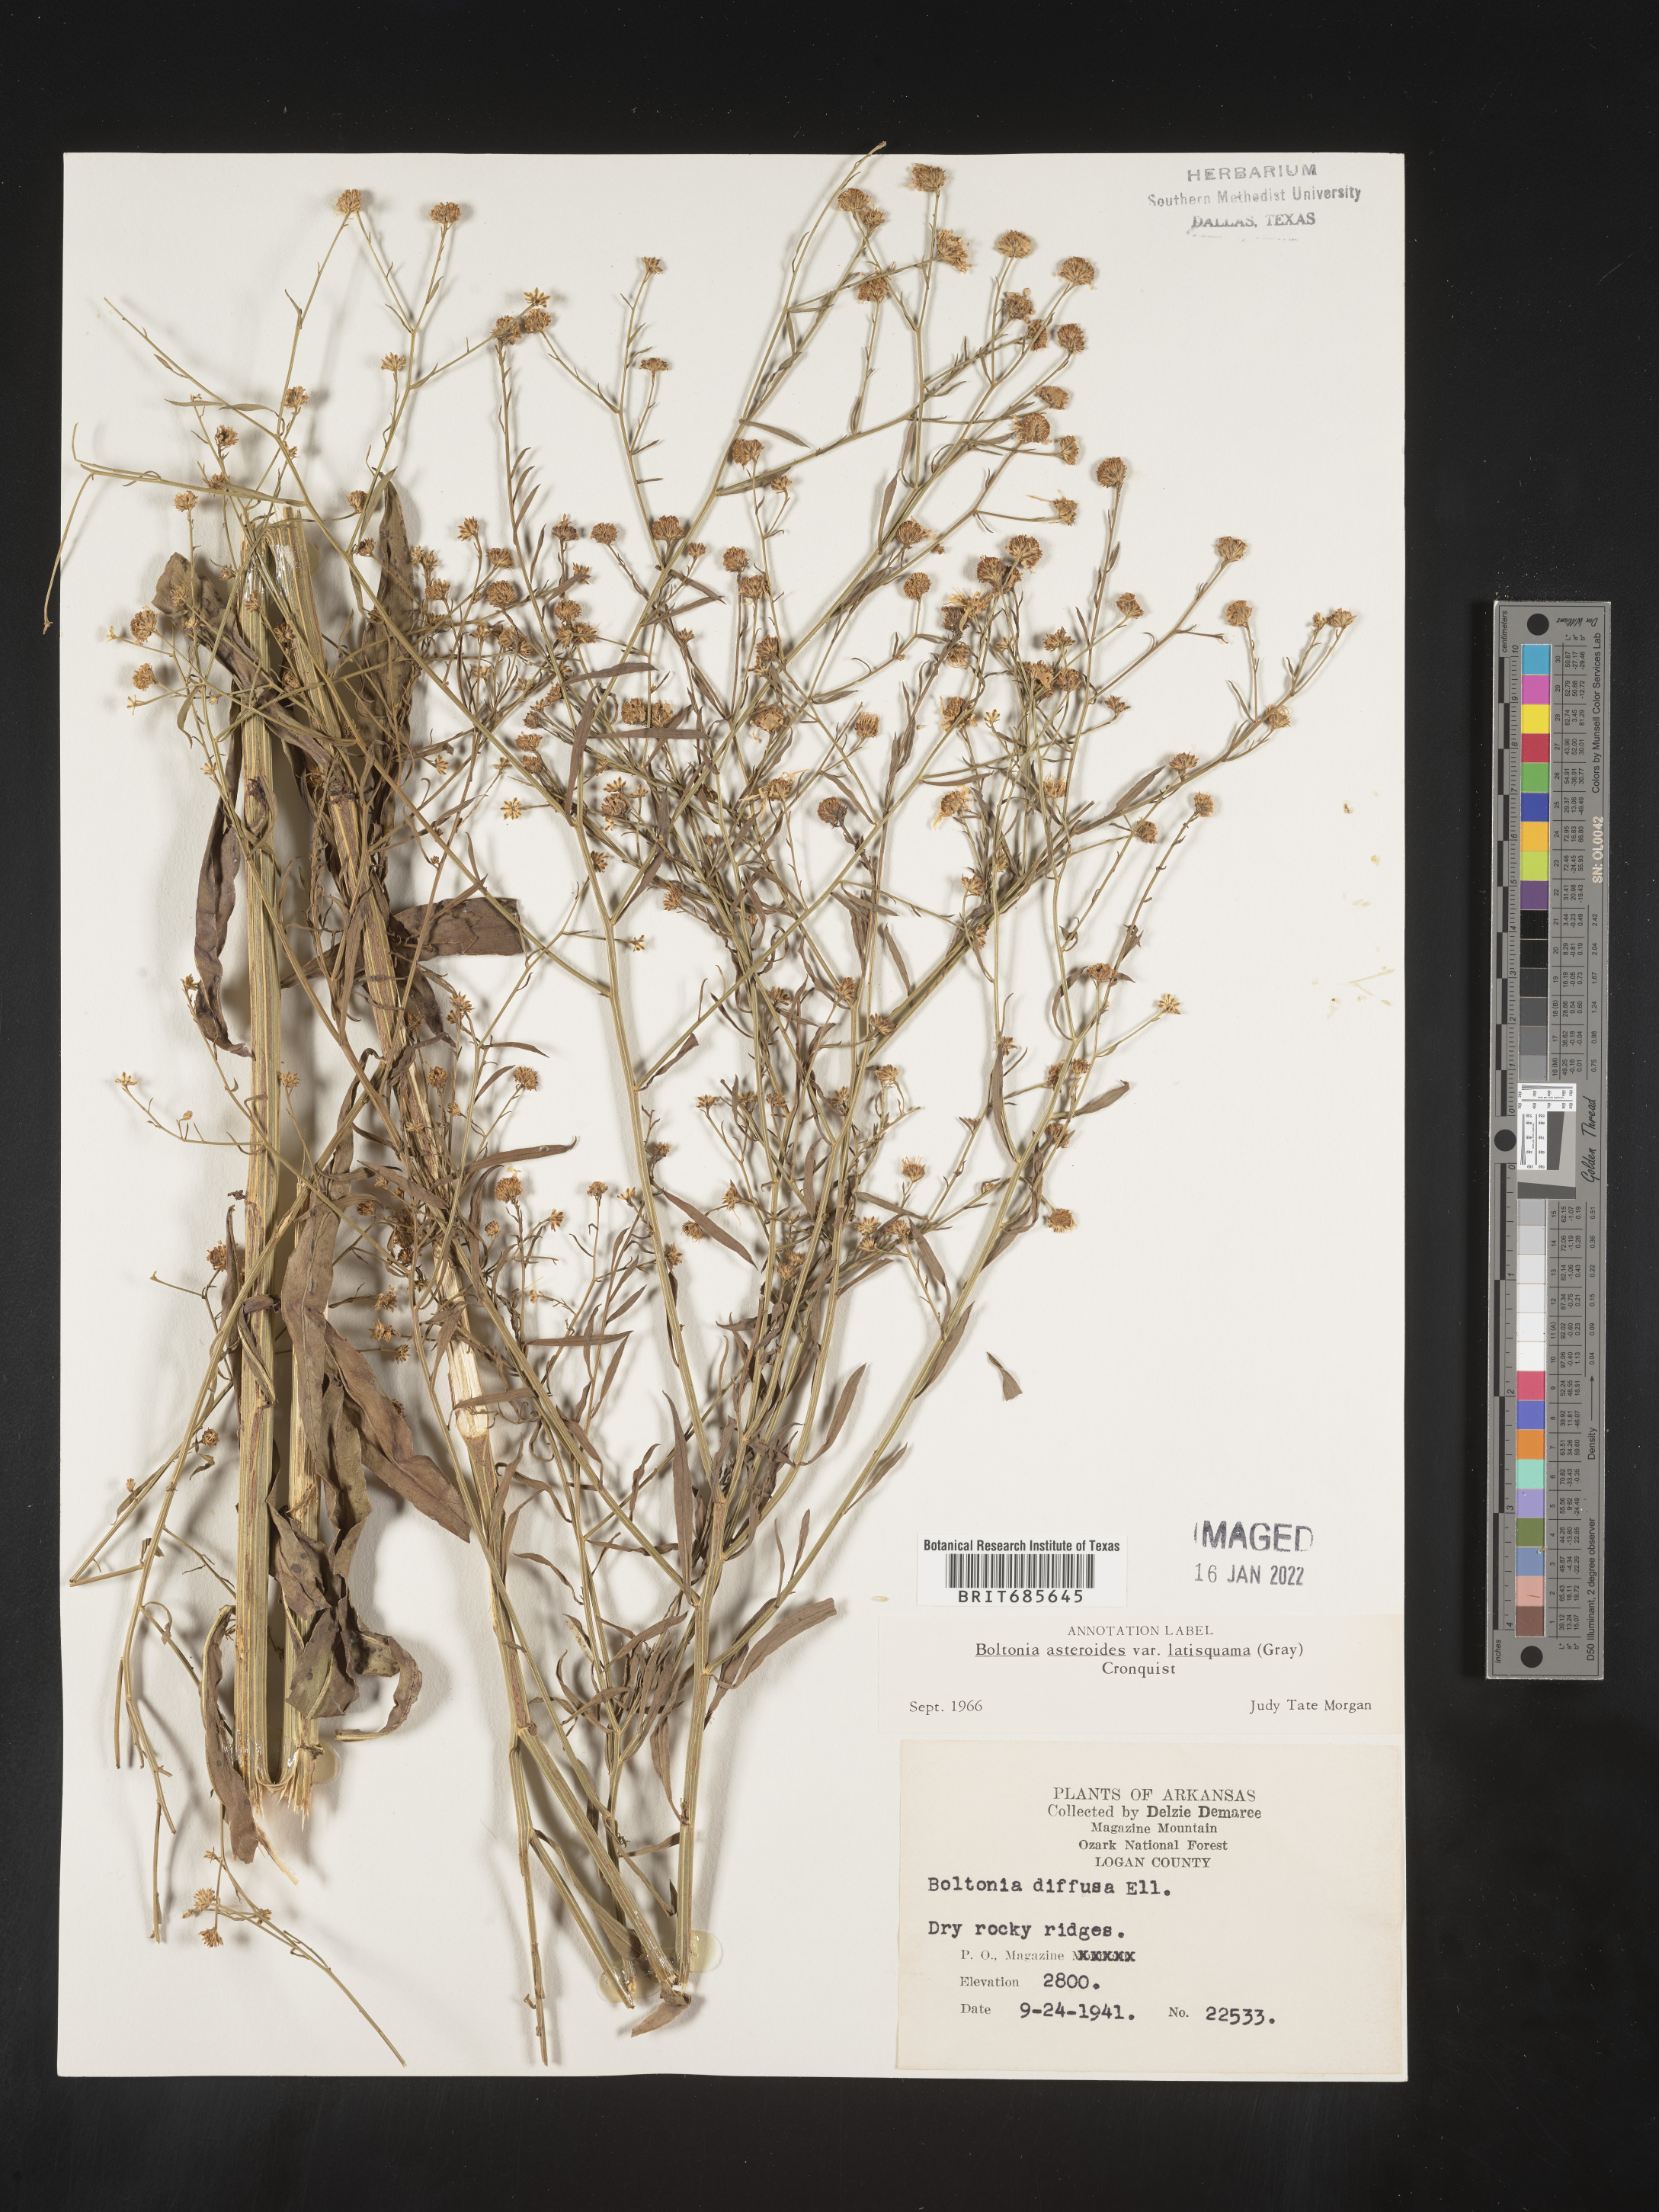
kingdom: Plantae
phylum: Tracheophyta
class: Magnoliopsida
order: Asterales
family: Asteraceae
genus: Boltonia
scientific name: Boltonia diffusa
